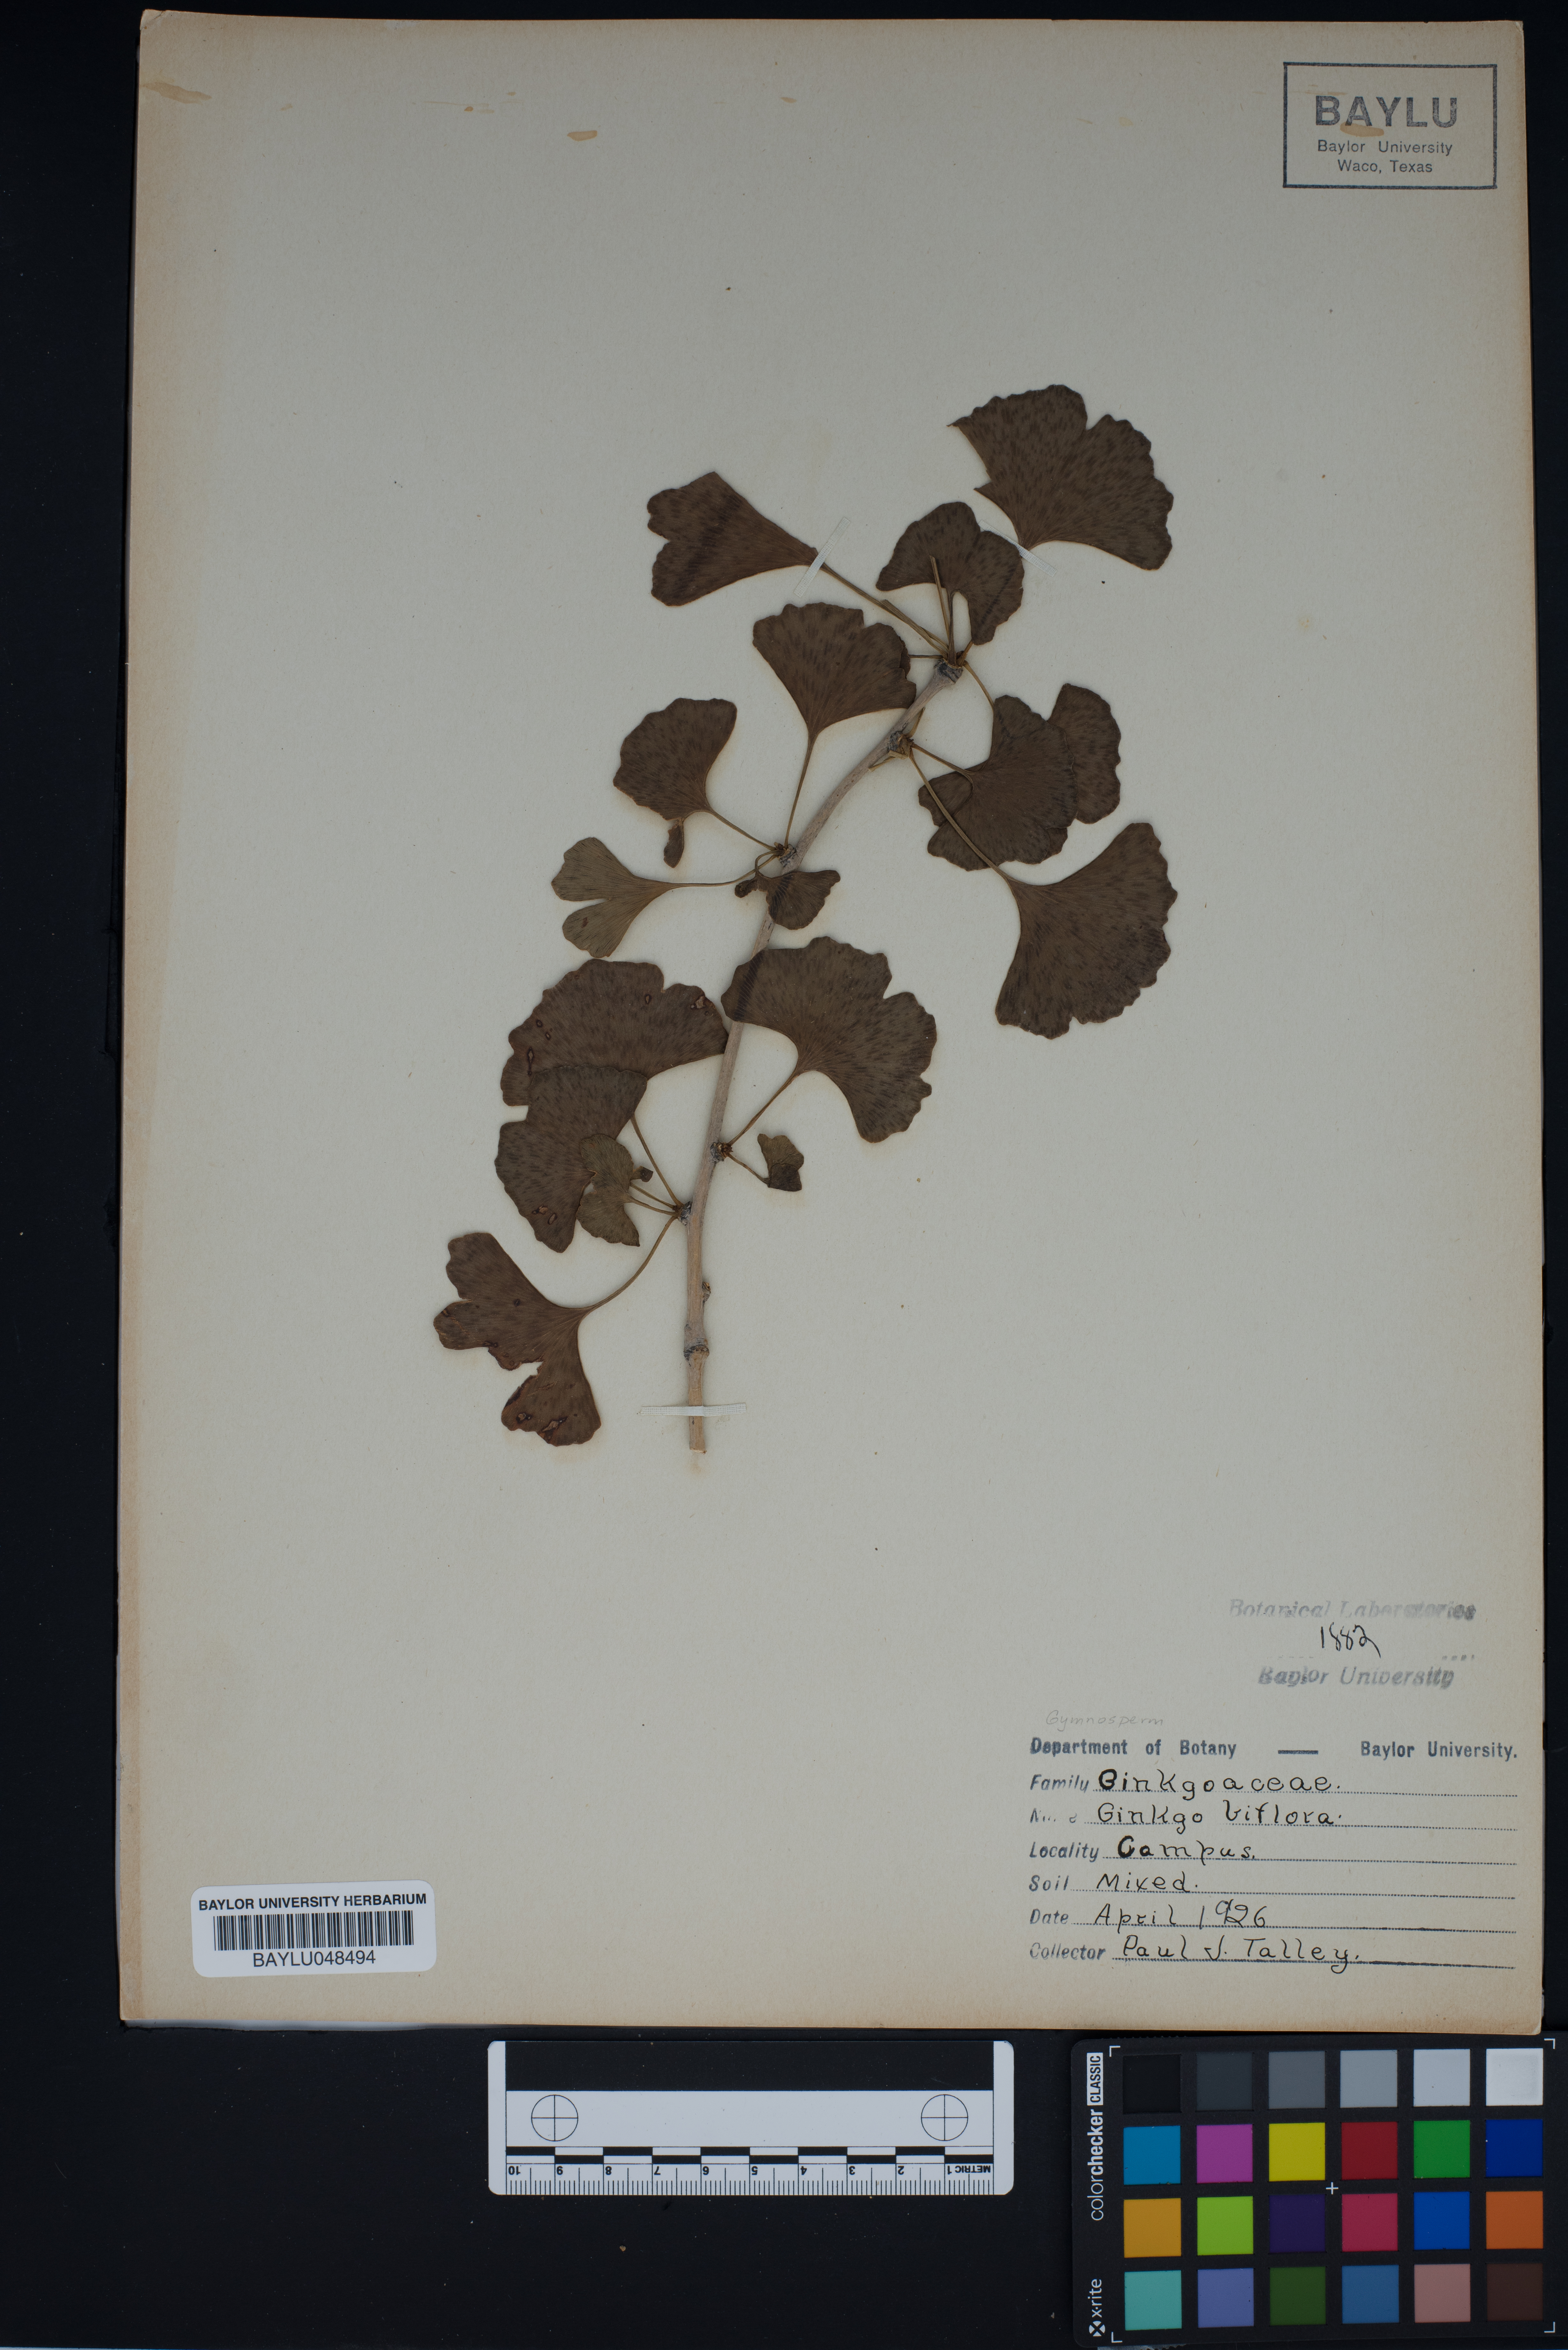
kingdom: Plantae
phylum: Tracheophyta
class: Ginkgoopsida
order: Ginkgoales
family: Ginkgoaceae
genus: Ginkgo
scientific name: Ginkgo biloba
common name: Ginkgo
